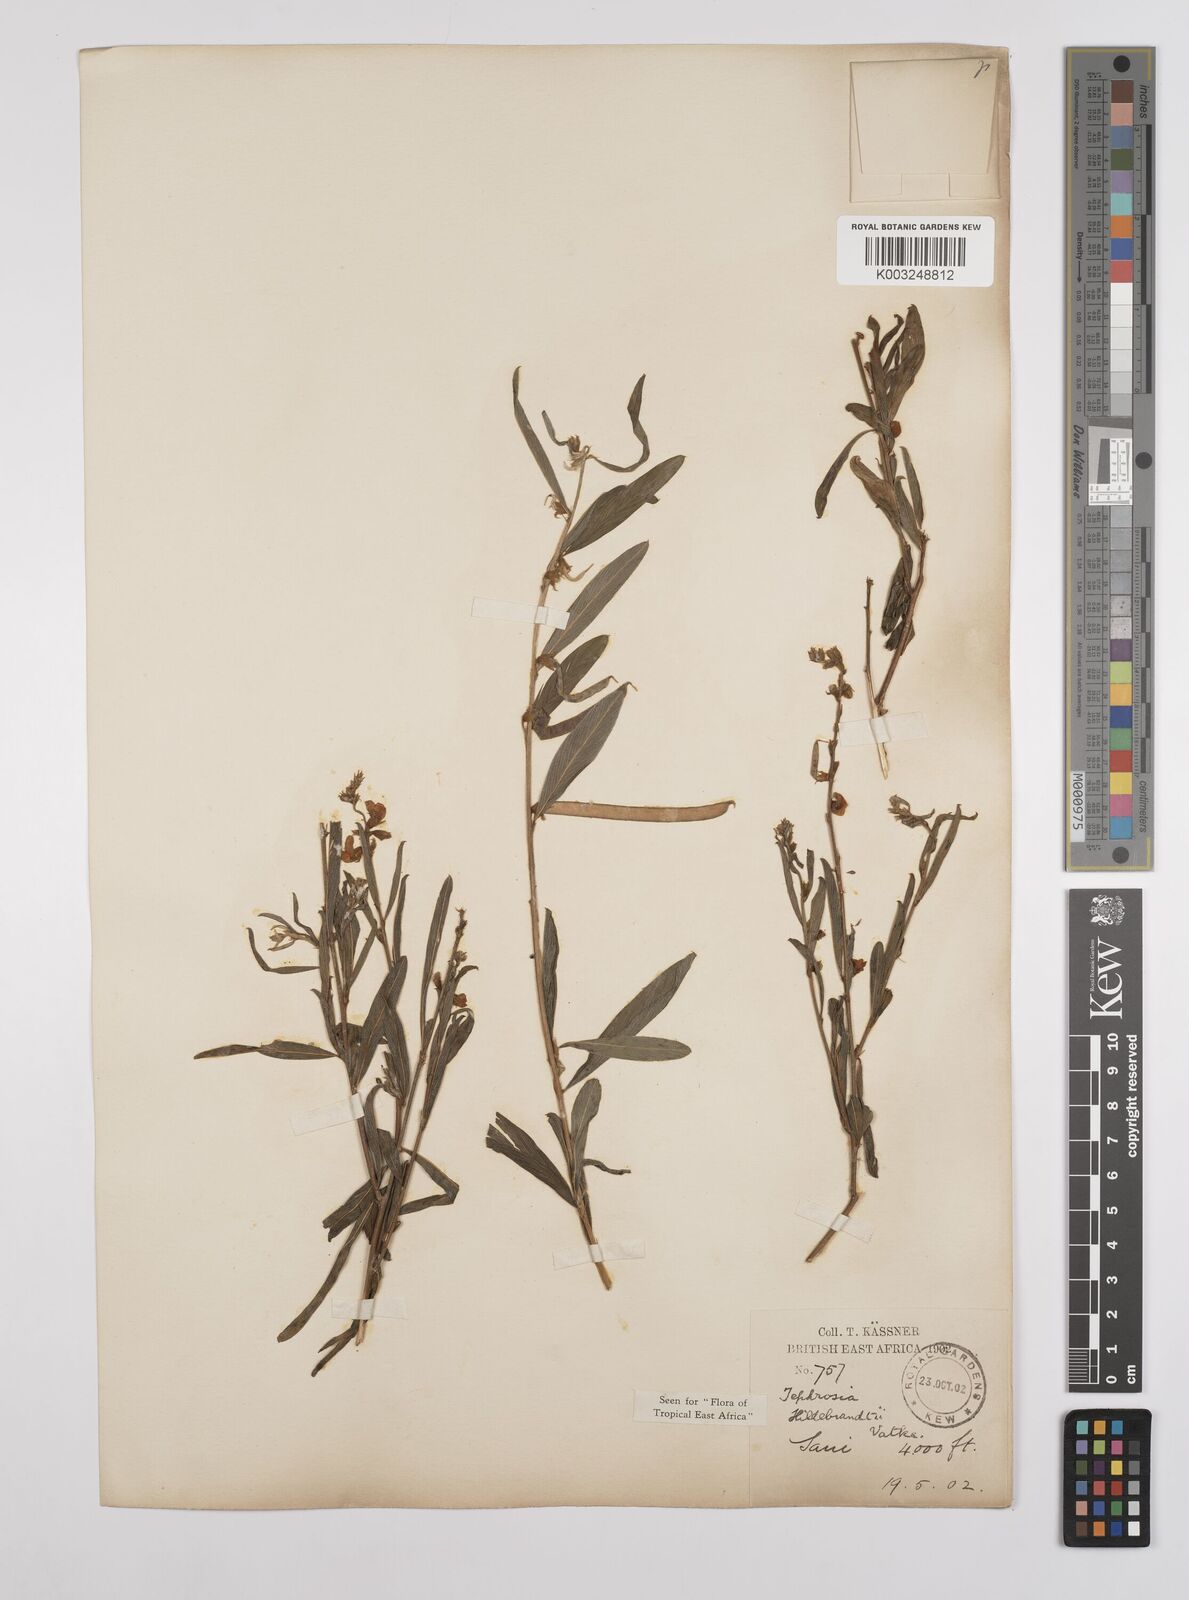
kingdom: Plantae
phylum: Tracheophyta
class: Magnoliopsida
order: Fabales
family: Fabaceae
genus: Tephrosia
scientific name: Tephrosia hildebrandtii
